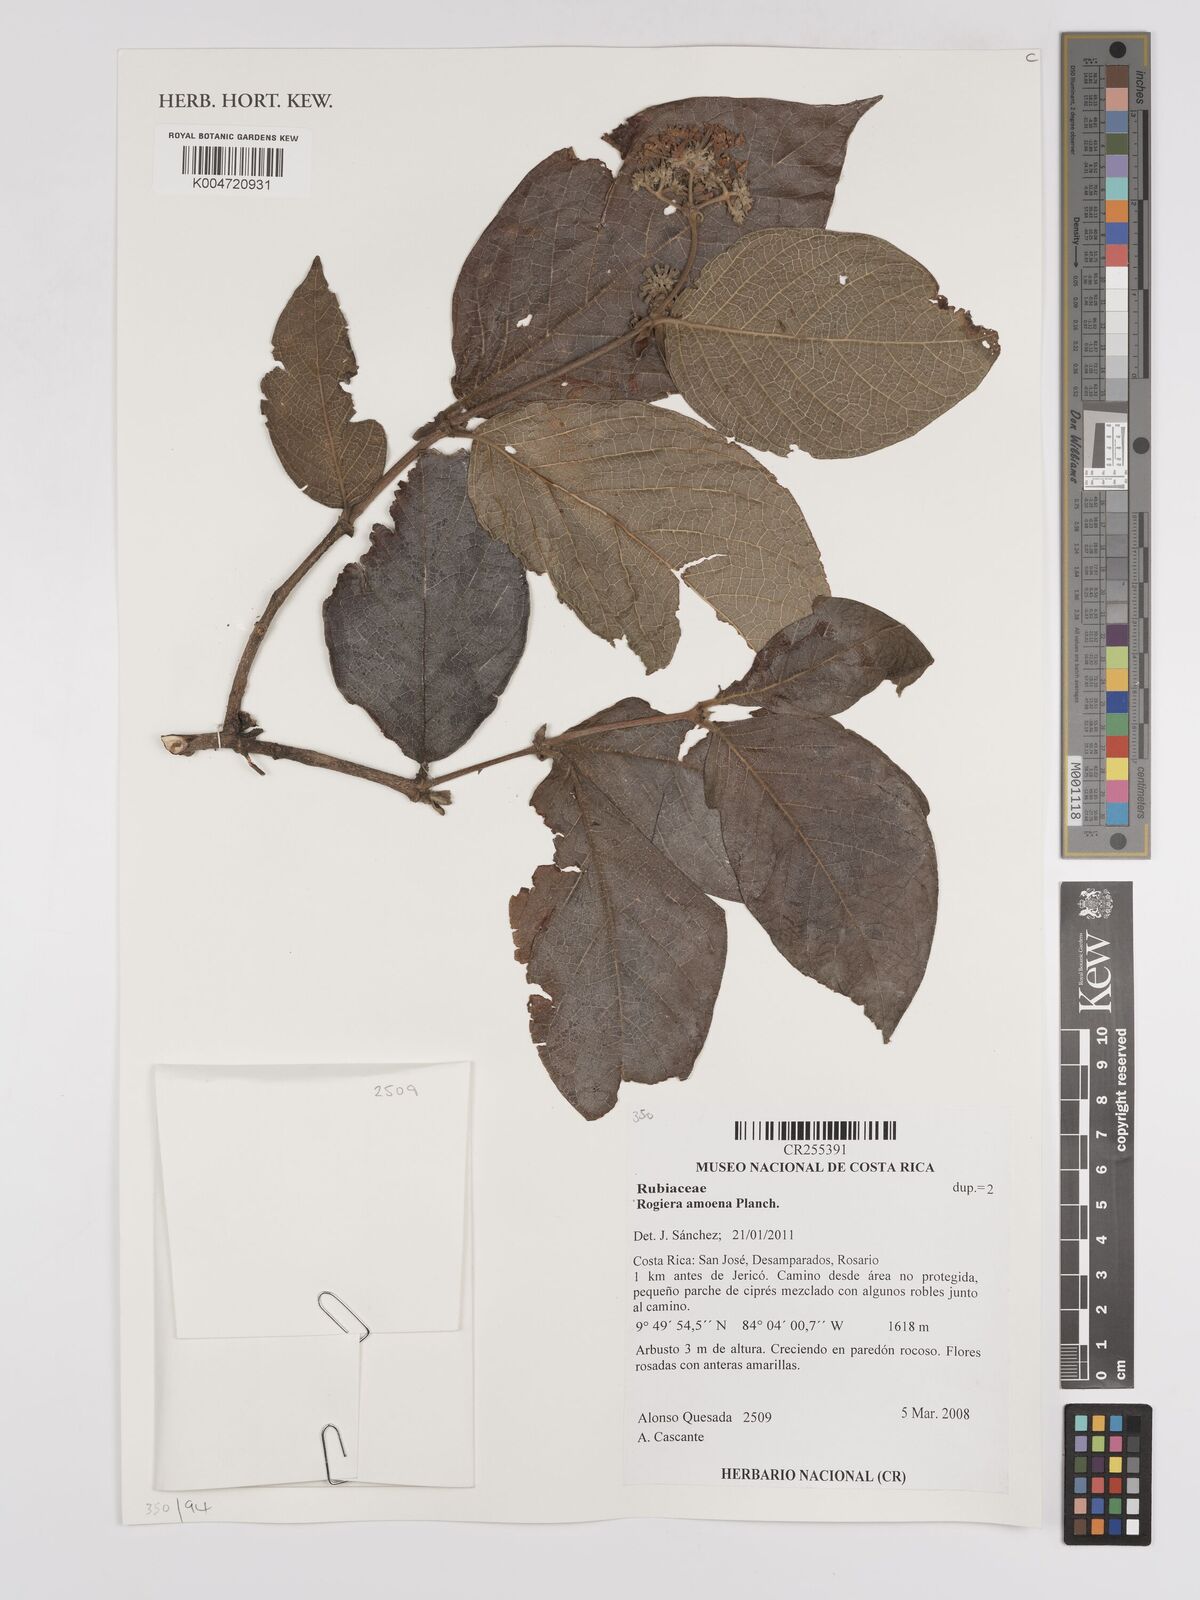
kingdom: Plantae
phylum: Tracheophyta
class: Magnoliopsida
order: Gentianales
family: Rubiaceae
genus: Rogiera
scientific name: Rogiera amoena
